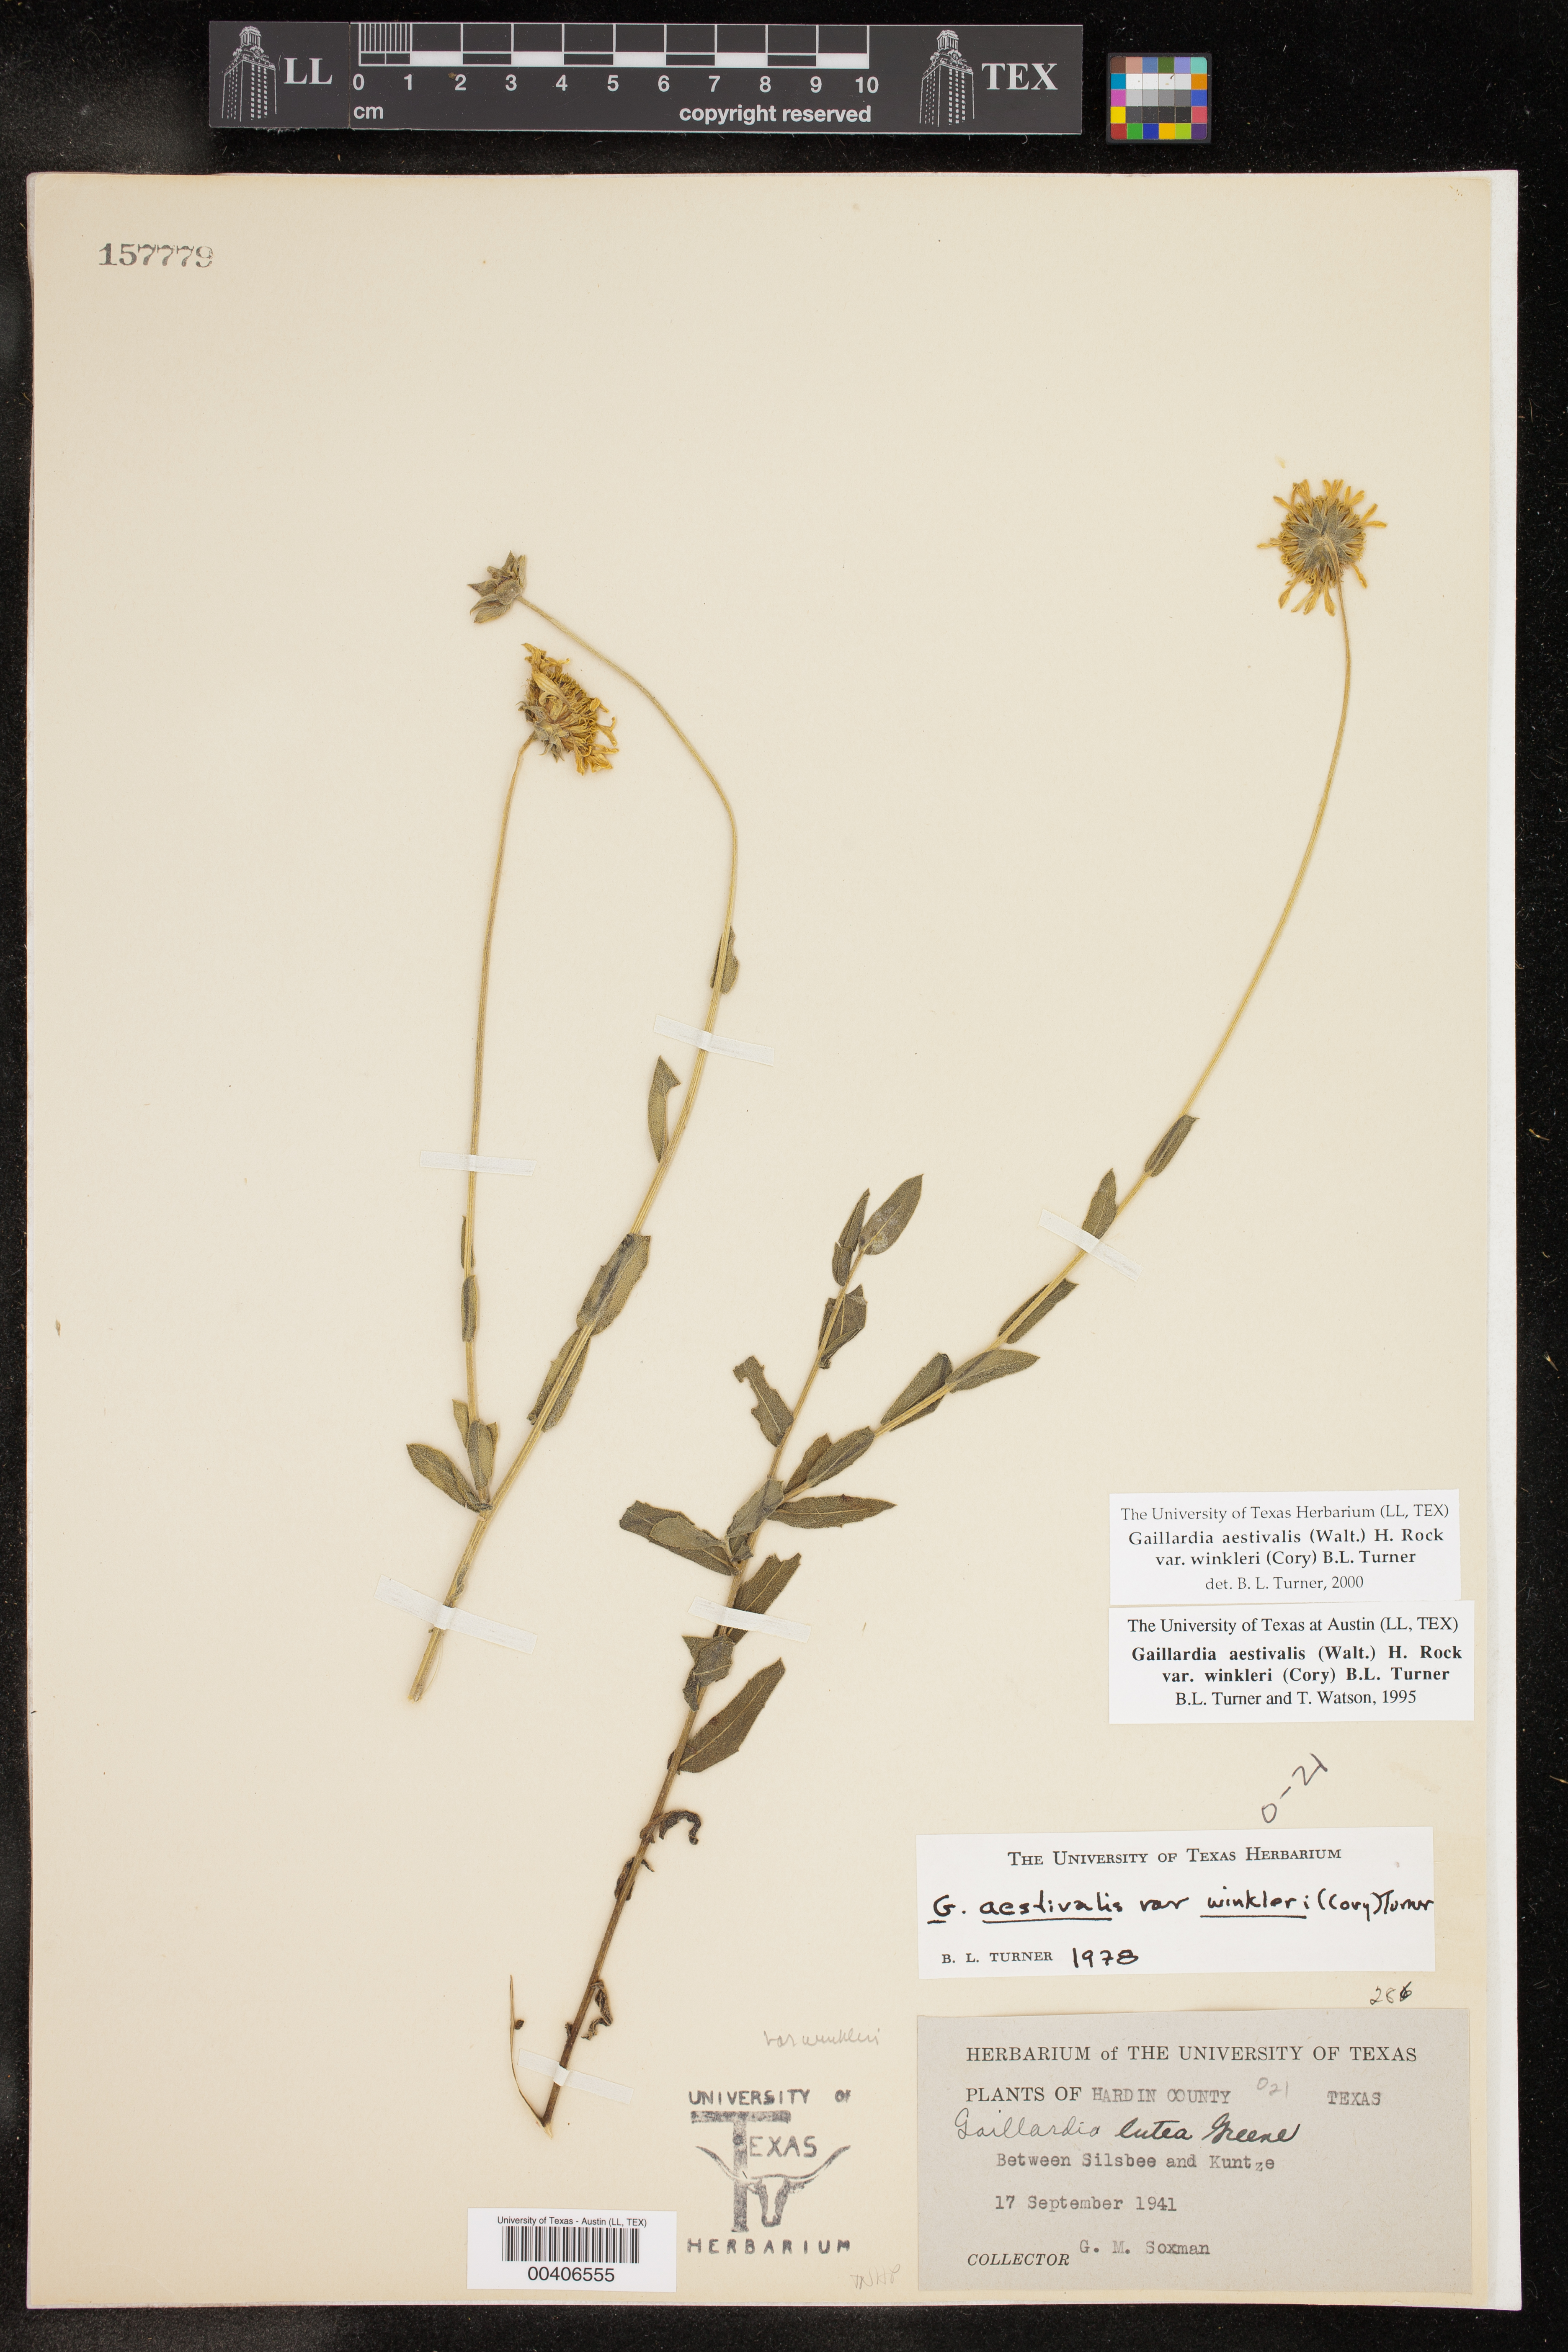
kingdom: Plantae
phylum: Tracheophyta
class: Magnoliopsida
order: Asterales
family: Asteraceae
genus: Gaillardia
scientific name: Gaillardia aestivalis
